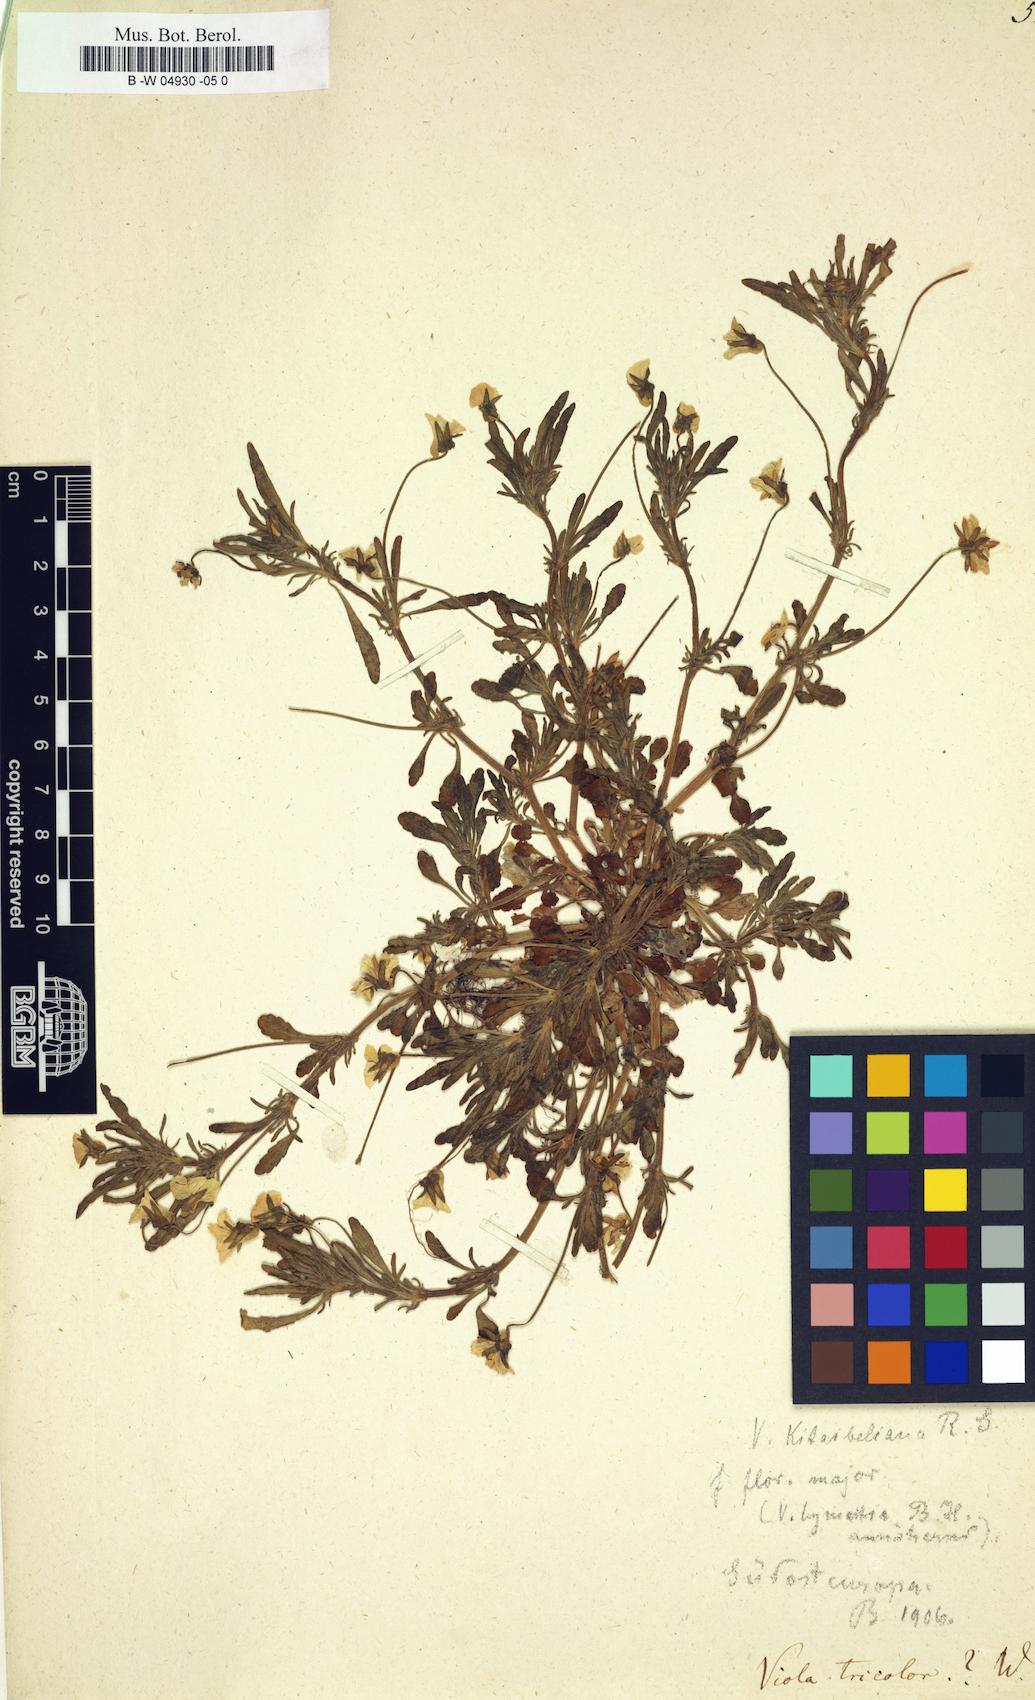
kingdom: Plantae
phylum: Tracheophyta
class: Magnoliopsida
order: Malpighiales
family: Violaceae
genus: Viola
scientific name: Viola tricolor
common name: Pansy
